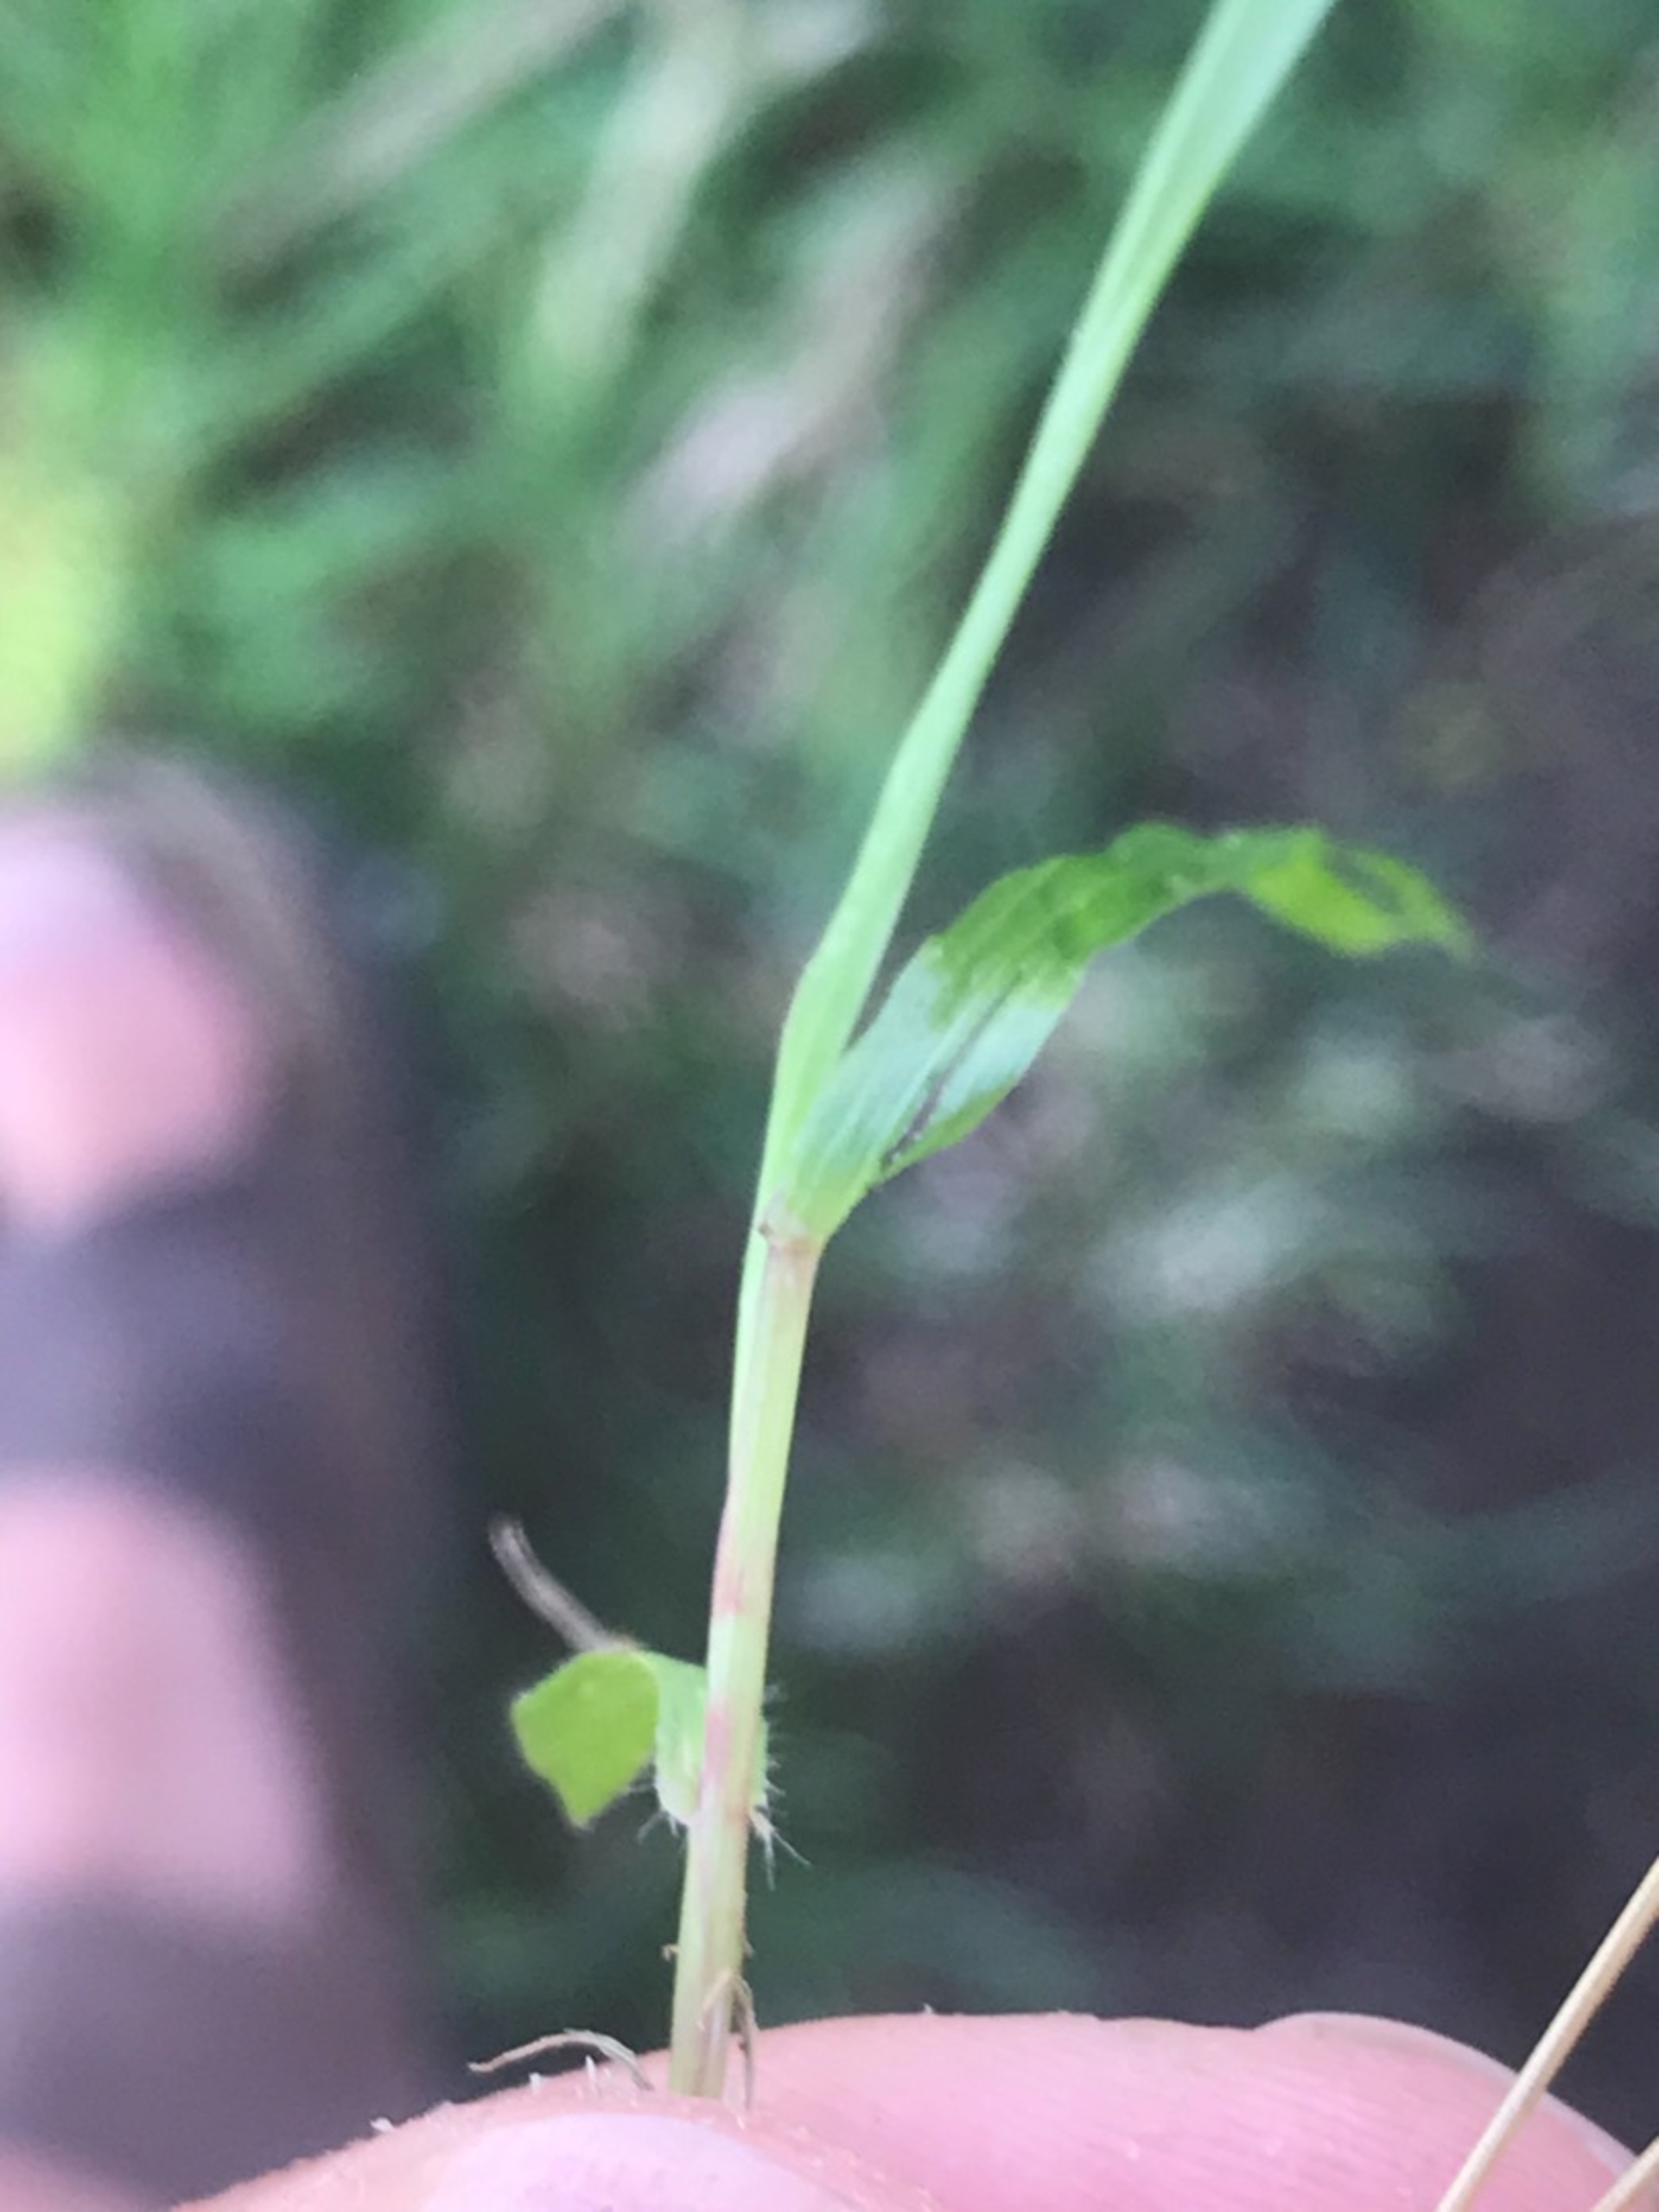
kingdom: Plantae
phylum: Tracheophyta
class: Liliopsida
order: Poales
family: Poaceae
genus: Anthoxanthum
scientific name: Anthoxanthum odoratum
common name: Vellugtende gulaks
